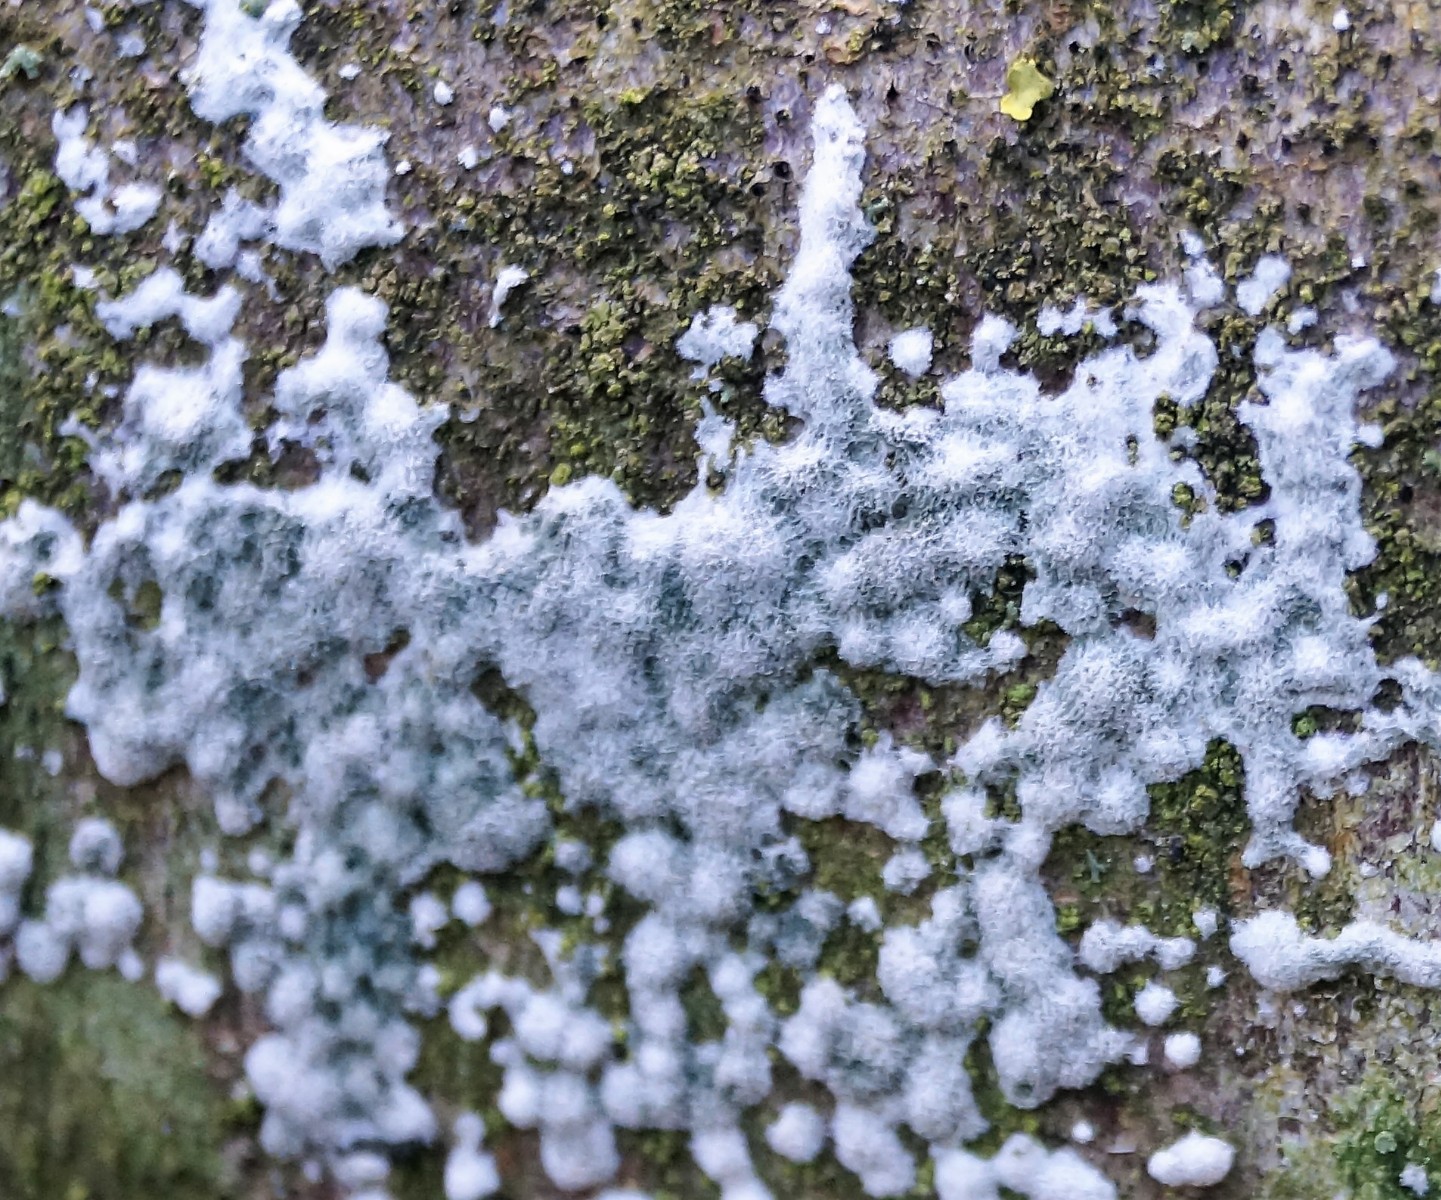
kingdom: Fungi
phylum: Ascomycota
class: Sordariomycetes
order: Hypocreales
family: Hypocreaceae
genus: Trichoderma
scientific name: Trichoderma
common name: kødkerne
